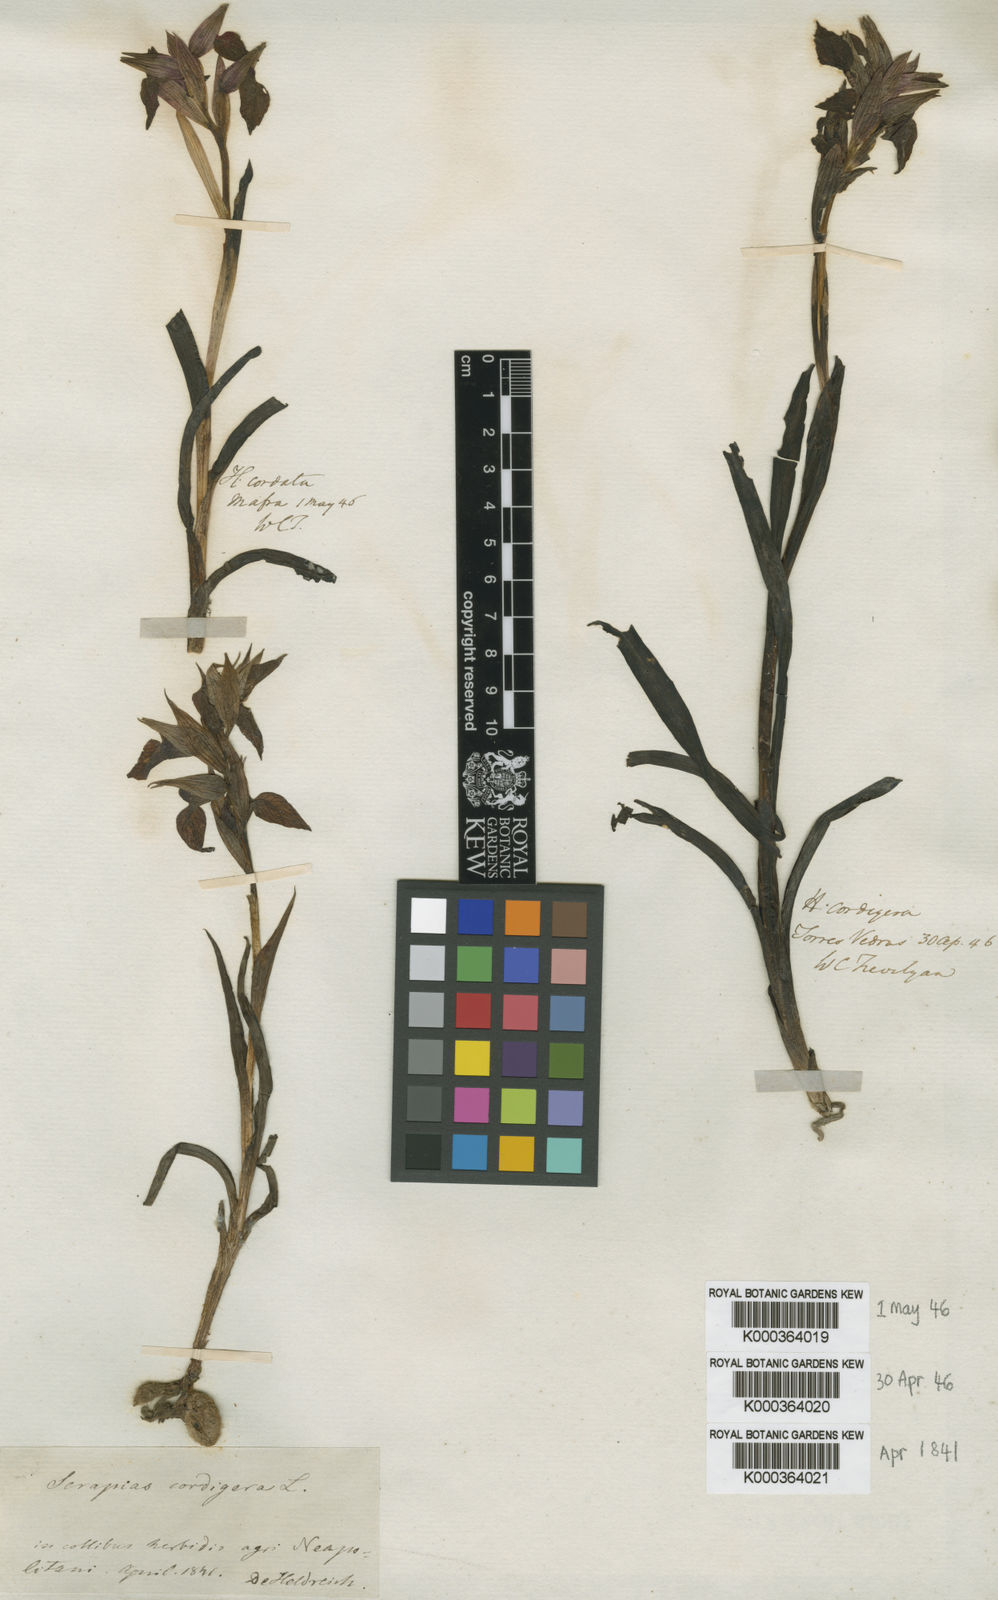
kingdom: Plantae
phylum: Tracheophyta
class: Liliopsida
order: Asparagales
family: Orchidaceae
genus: Serapias
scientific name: Serapias cordigera
